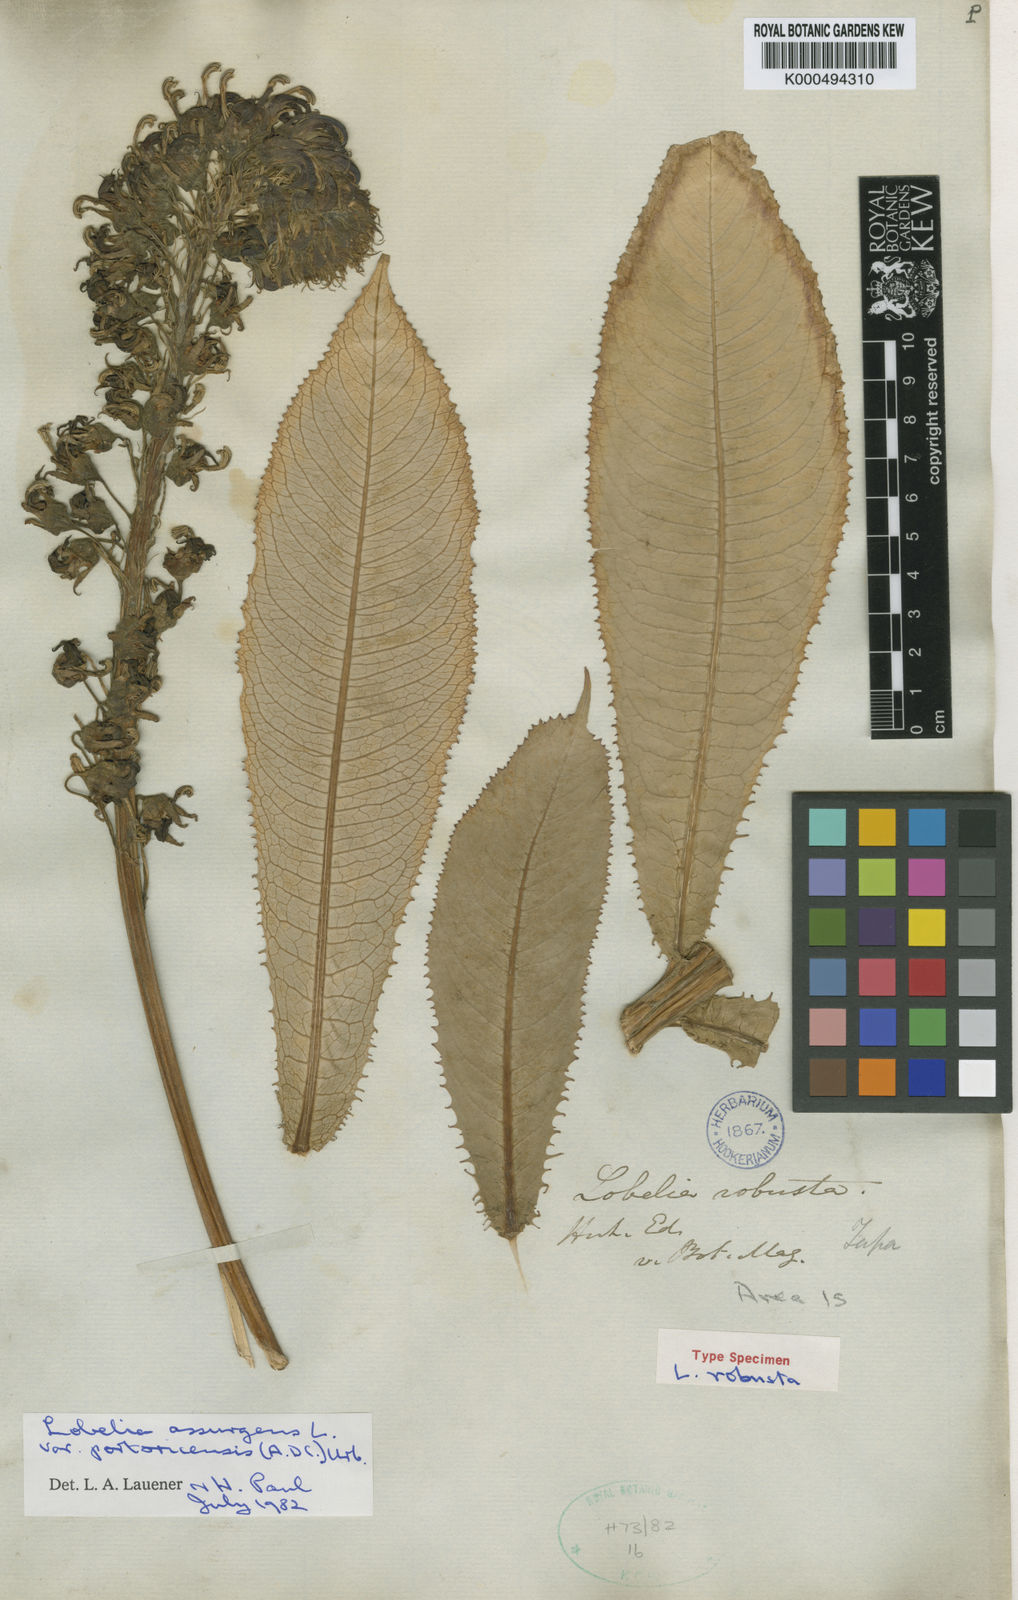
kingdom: Plantae
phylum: Tracheophyta
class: Magnoliopsida
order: Asterales
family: Campanulaceae
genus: Lobelia
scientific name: Lobelia assurgens
